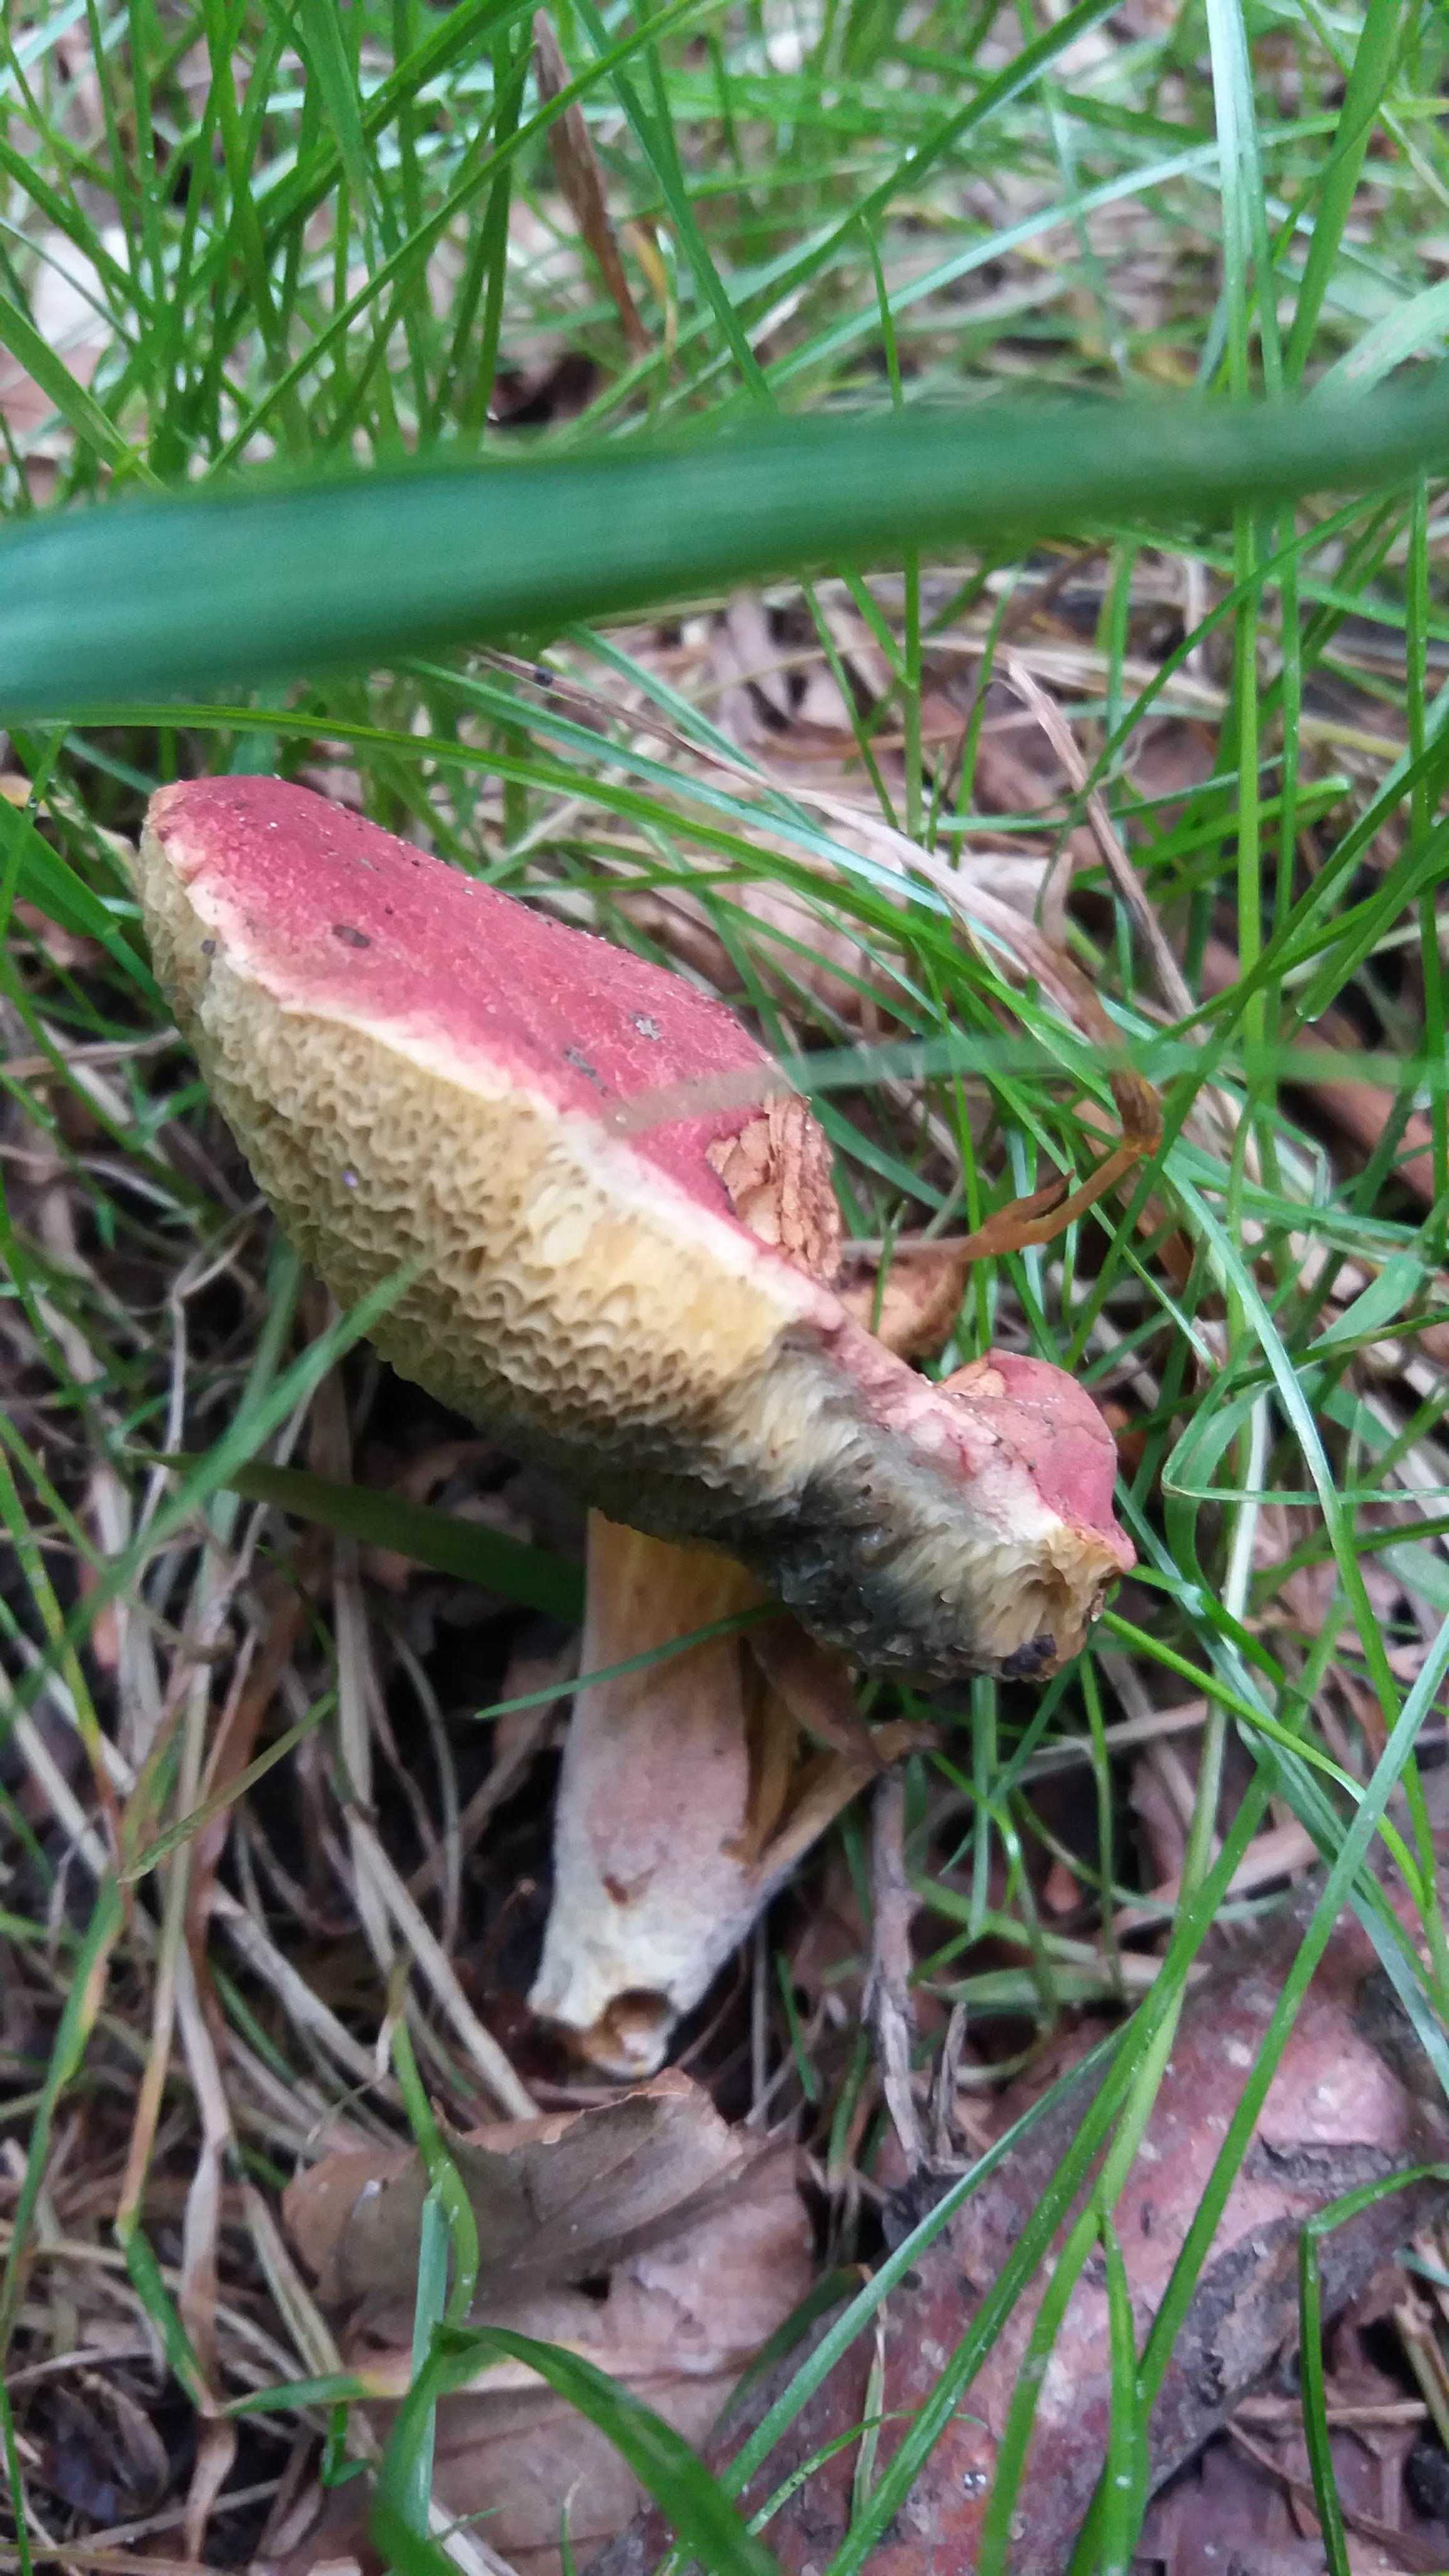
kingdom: Fungi
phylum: Basidiomycota
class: Agaricomycetes
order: Boletales
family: Boletaceae
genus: Hortiboletus
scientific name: Hortiboletus rubellus
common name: blodrød rørhat
